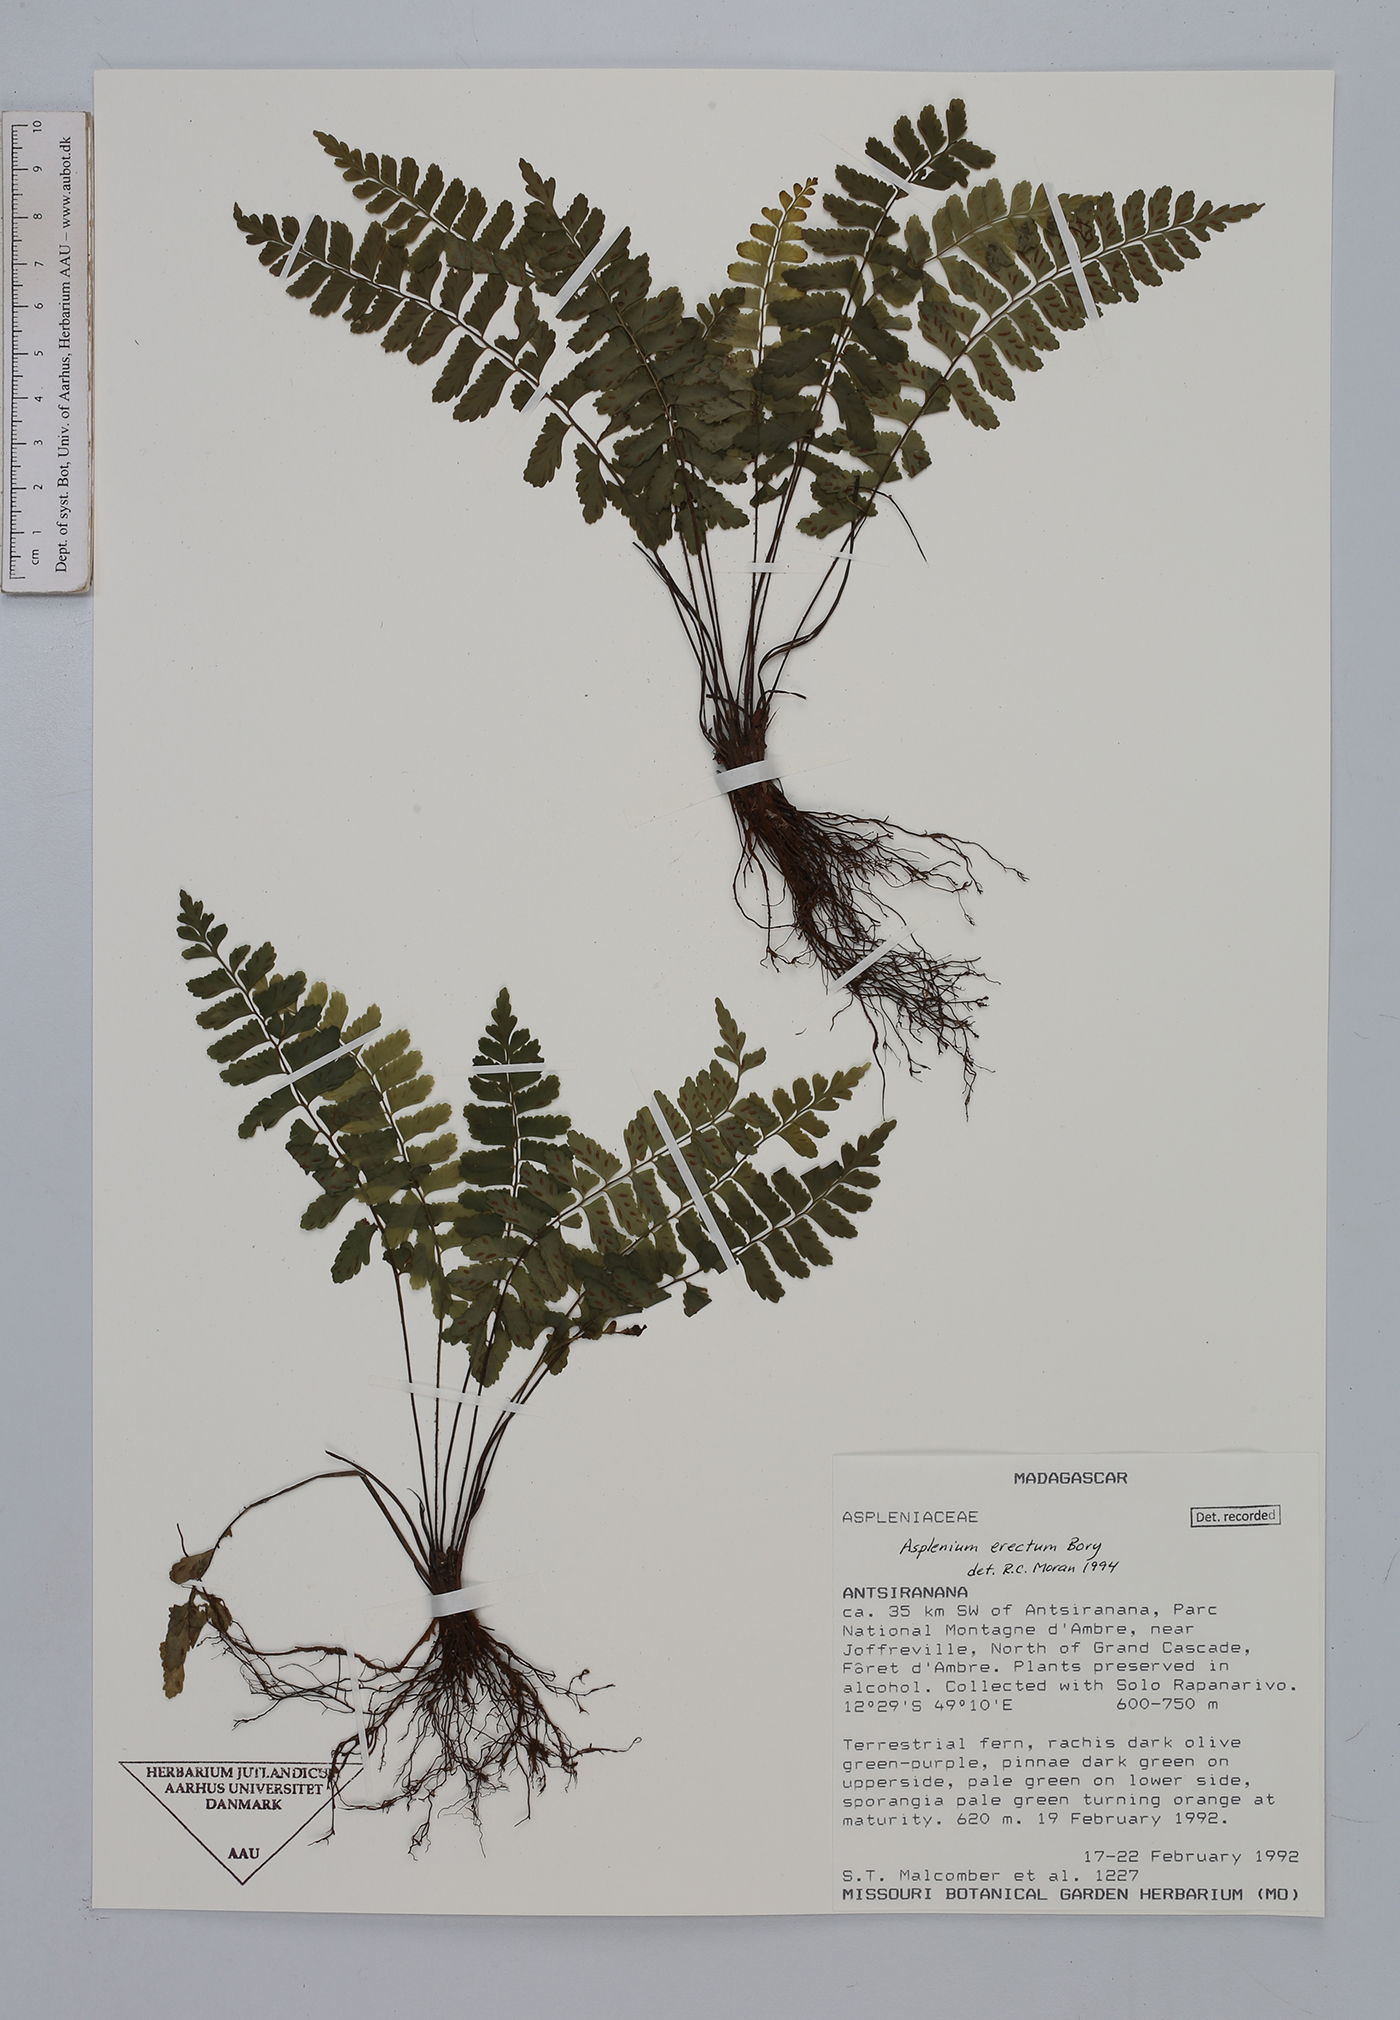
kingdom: Plantae
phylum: Tracheophyta
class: Polypodiopsida
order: Polypodiales
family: Aspleniaceae
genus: Asplenium
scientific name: Asplenium erectum
